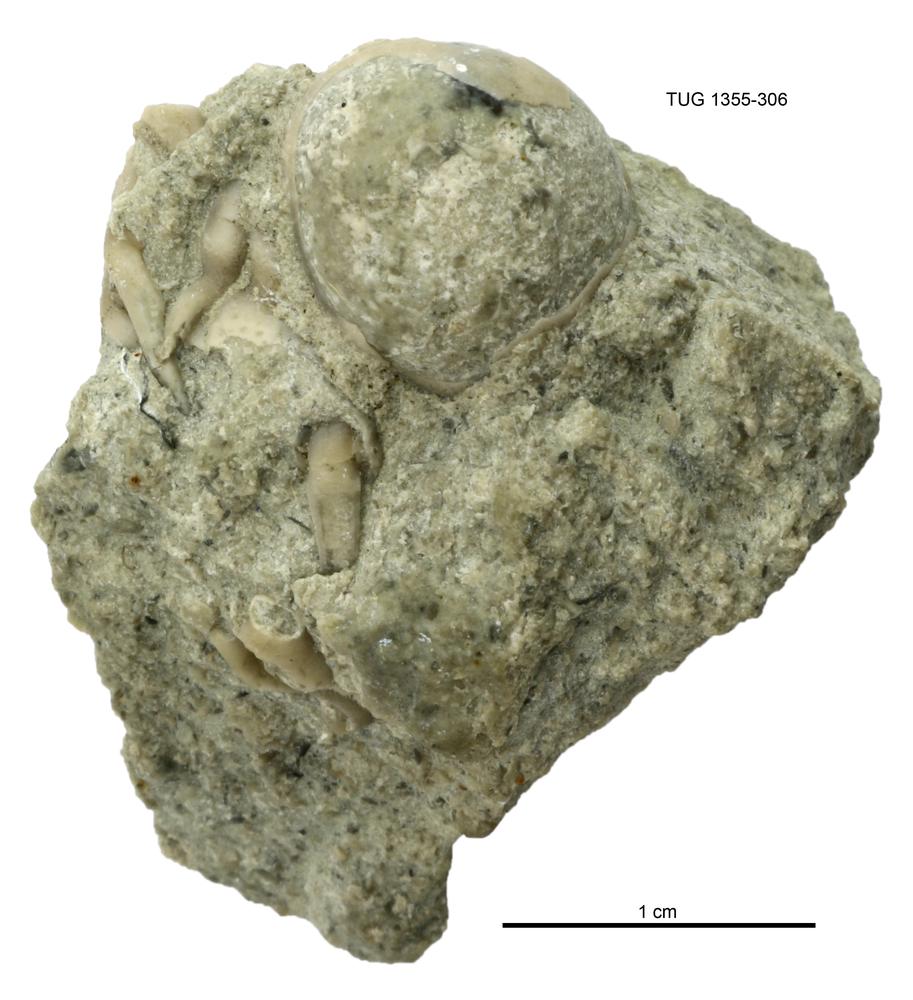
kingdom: Animalia
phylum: Arthropoda
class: Trilobita
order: Phacopida
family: Cheiruridae
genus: Hemisphaerocoryphe
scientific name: Hemisphaerocoryphe pseudohemicranium
